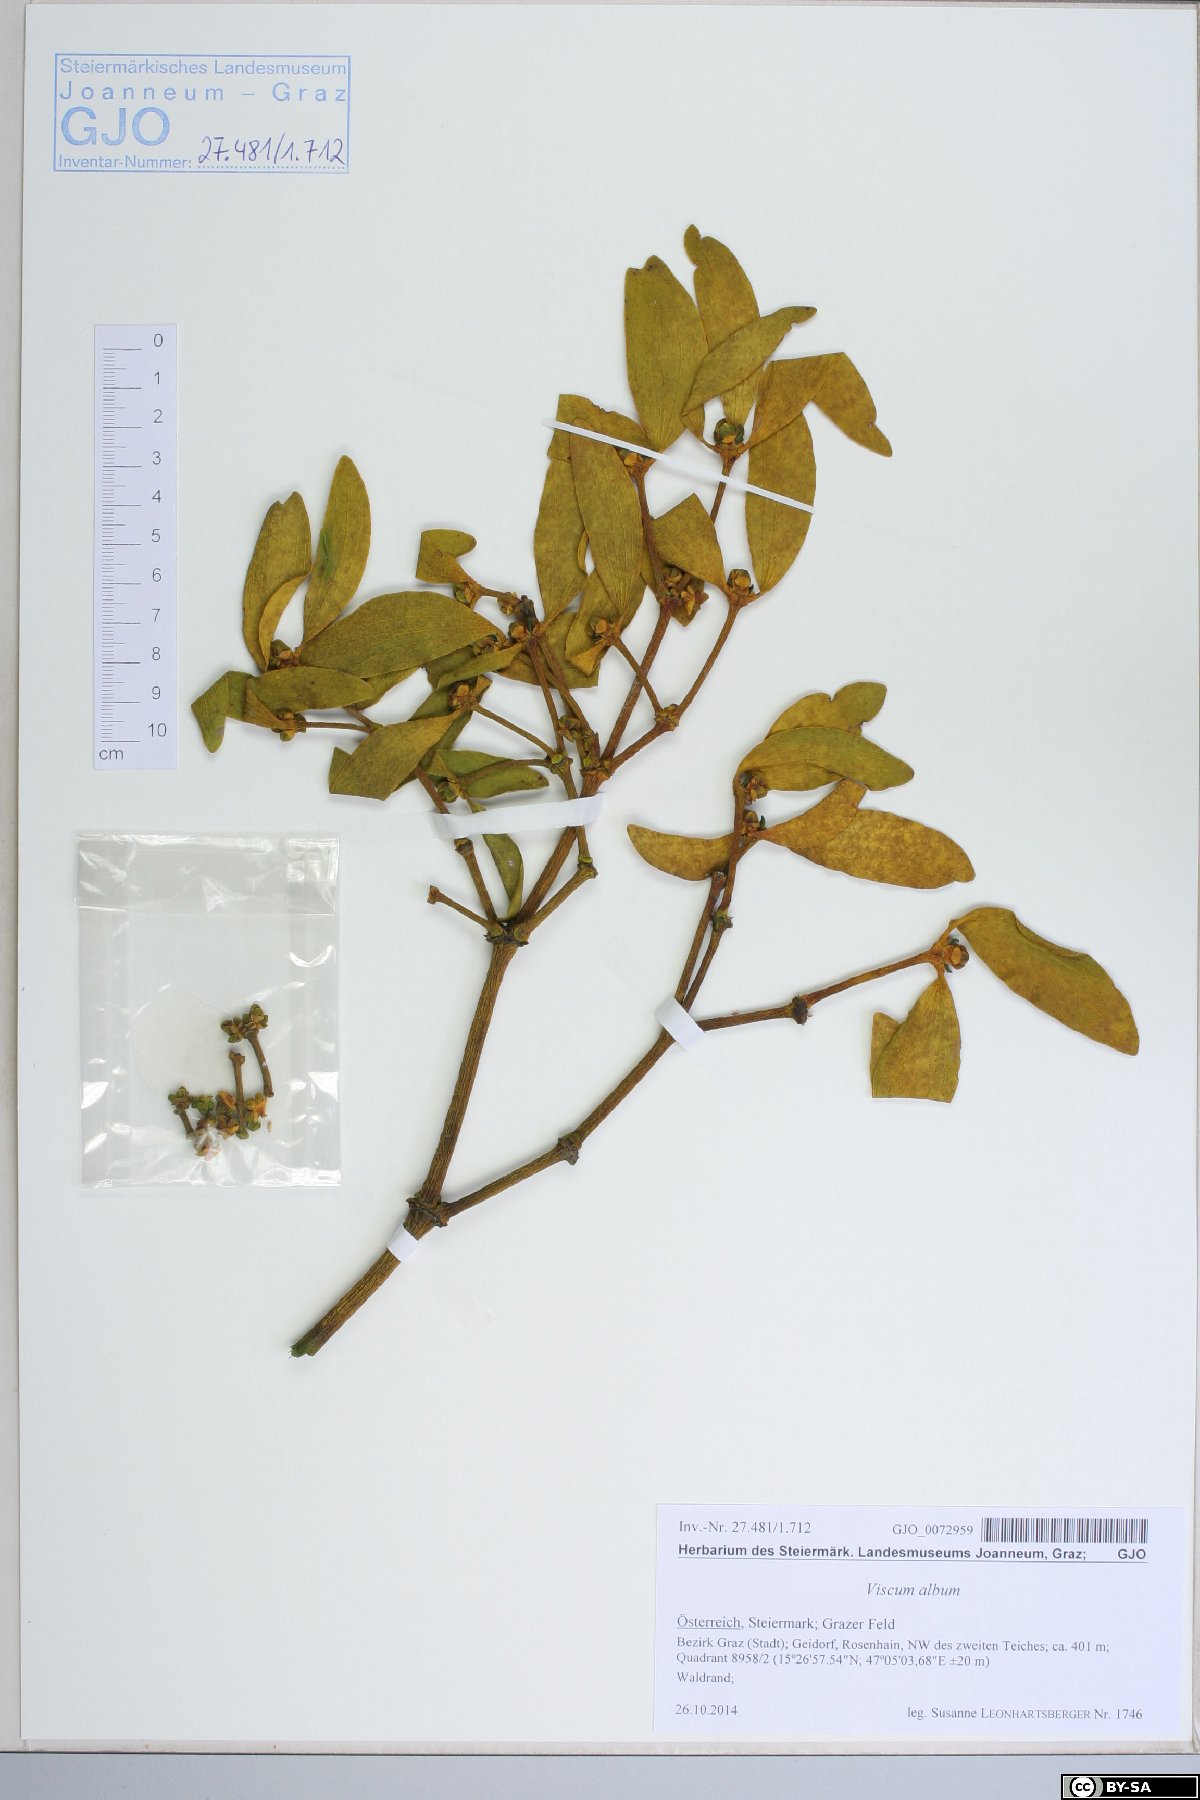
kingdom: Plantae
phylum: Tracheophyta
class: Magnoliopsida
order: Santalales
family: Viscaceae
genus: Viscum
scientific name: Viscum album
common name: Mistletoe
